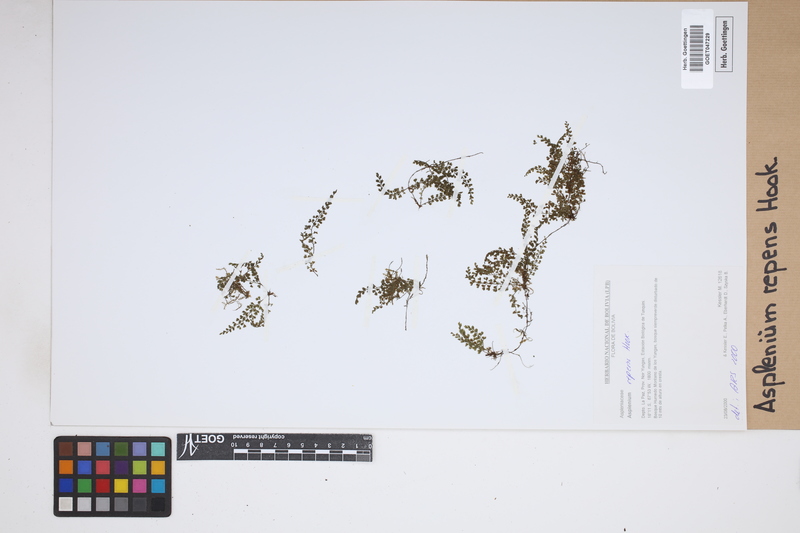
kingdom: Plantae
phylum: Tracheophyta
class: Polypodiopsida
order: Polypodiales
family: Aspleniaceae
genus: Asplenium
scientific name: Asplenium repens
